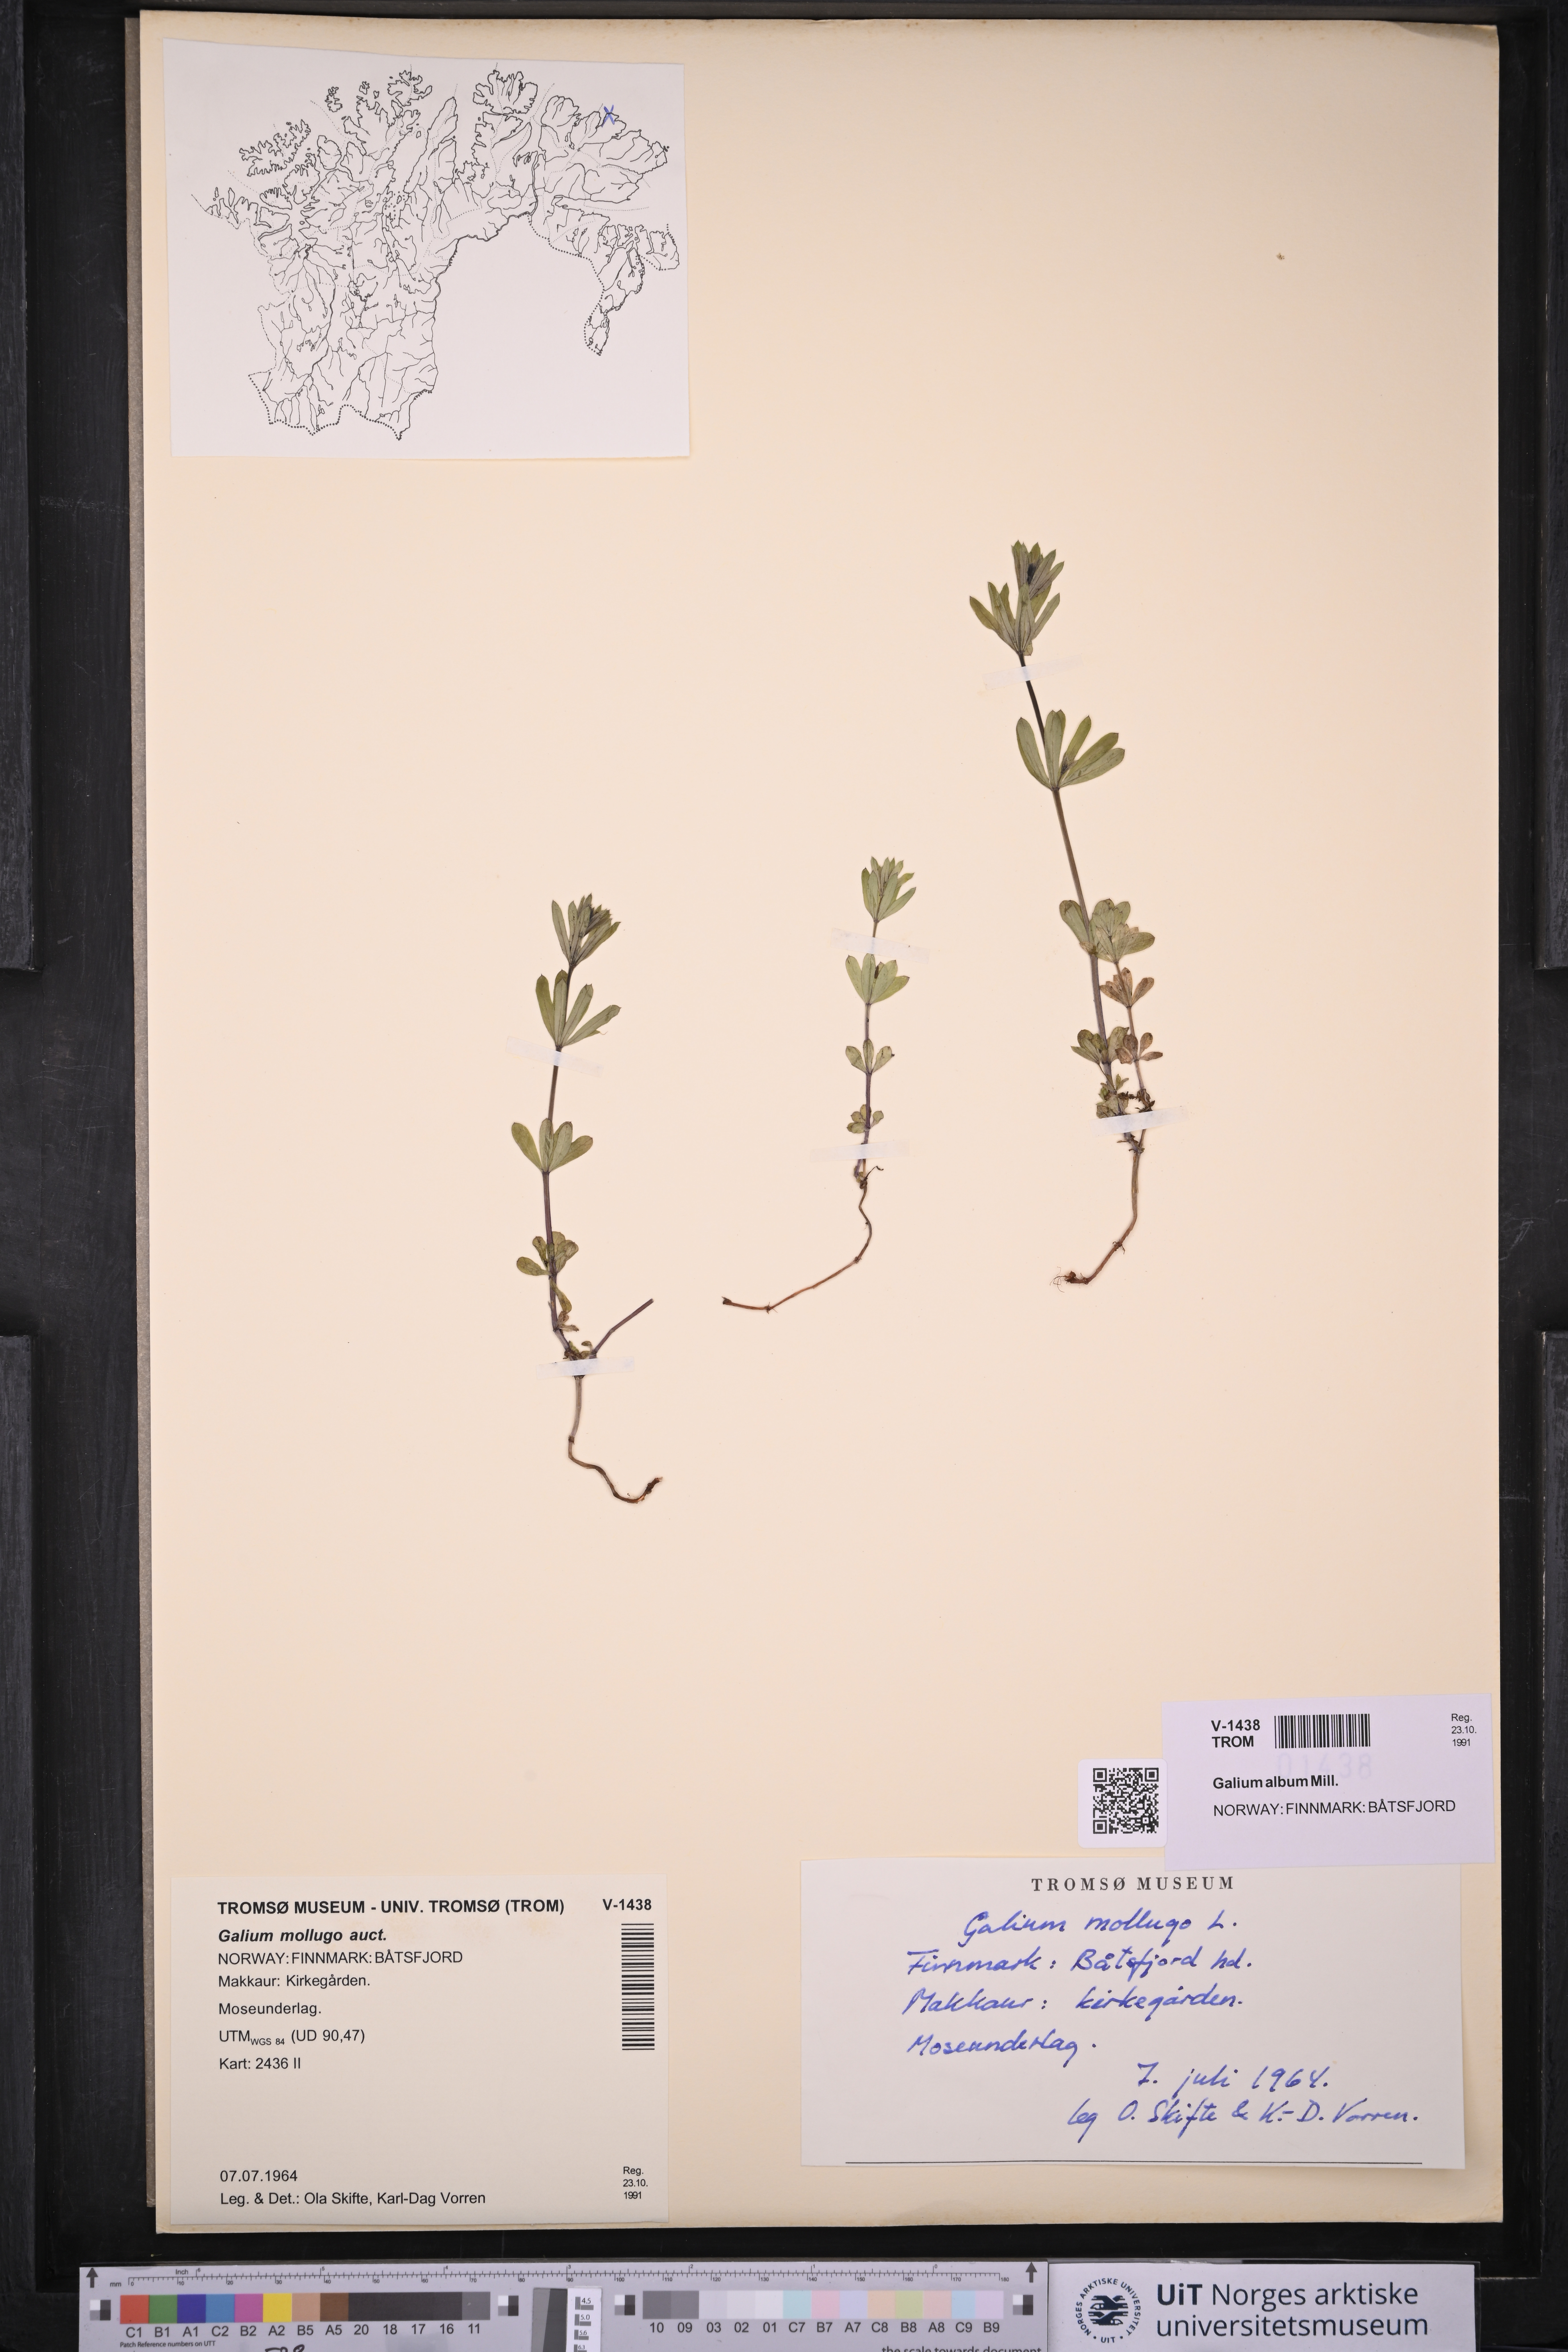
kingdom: Plantae
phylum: Tracheophyta
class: Magnoliopsida
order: Gentianales
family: Rubiaceae
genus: Galium
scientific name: Galium
